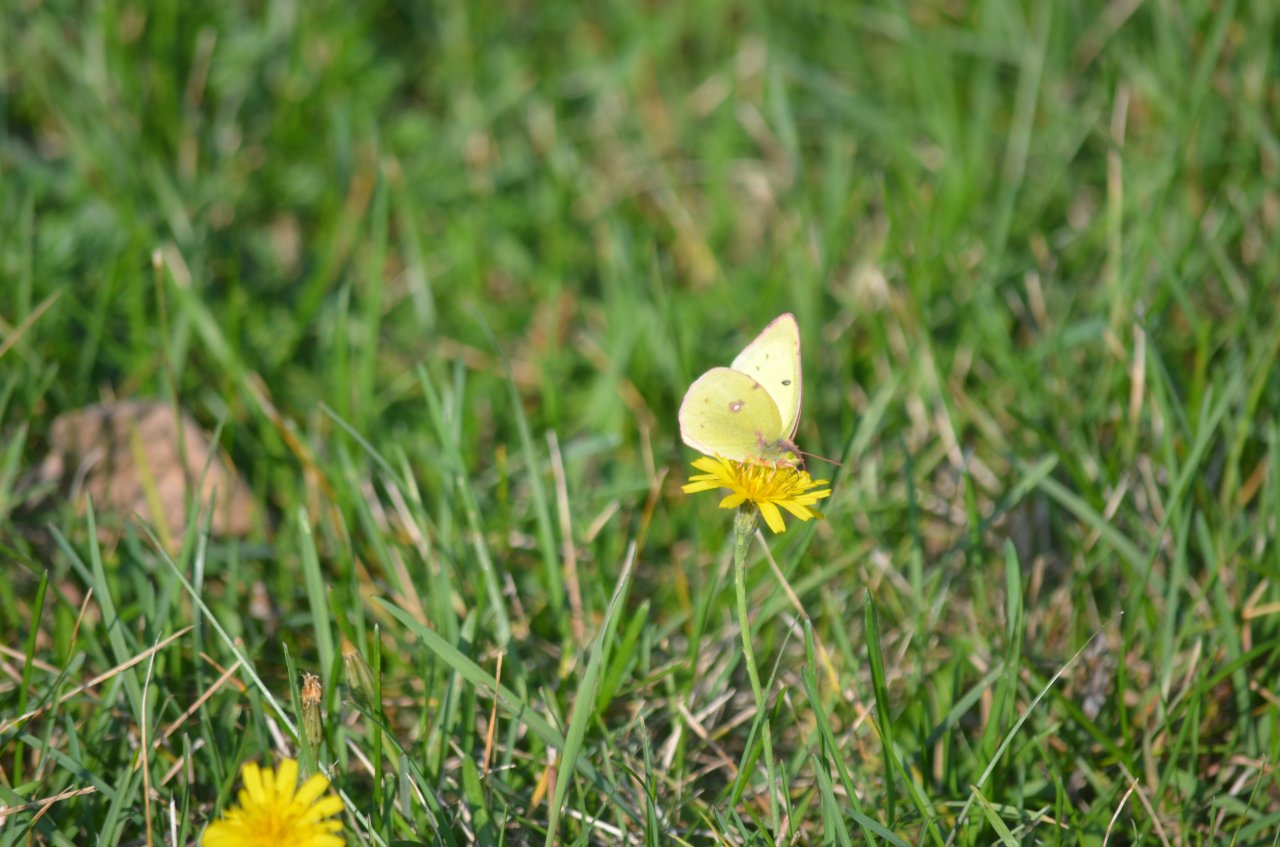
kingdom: Animalia
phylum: Arthropoda
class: Insecta
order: Lepidoptera
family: Pieridae
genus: Colias
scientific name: Colias philodice
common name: Clouded Sulphur
